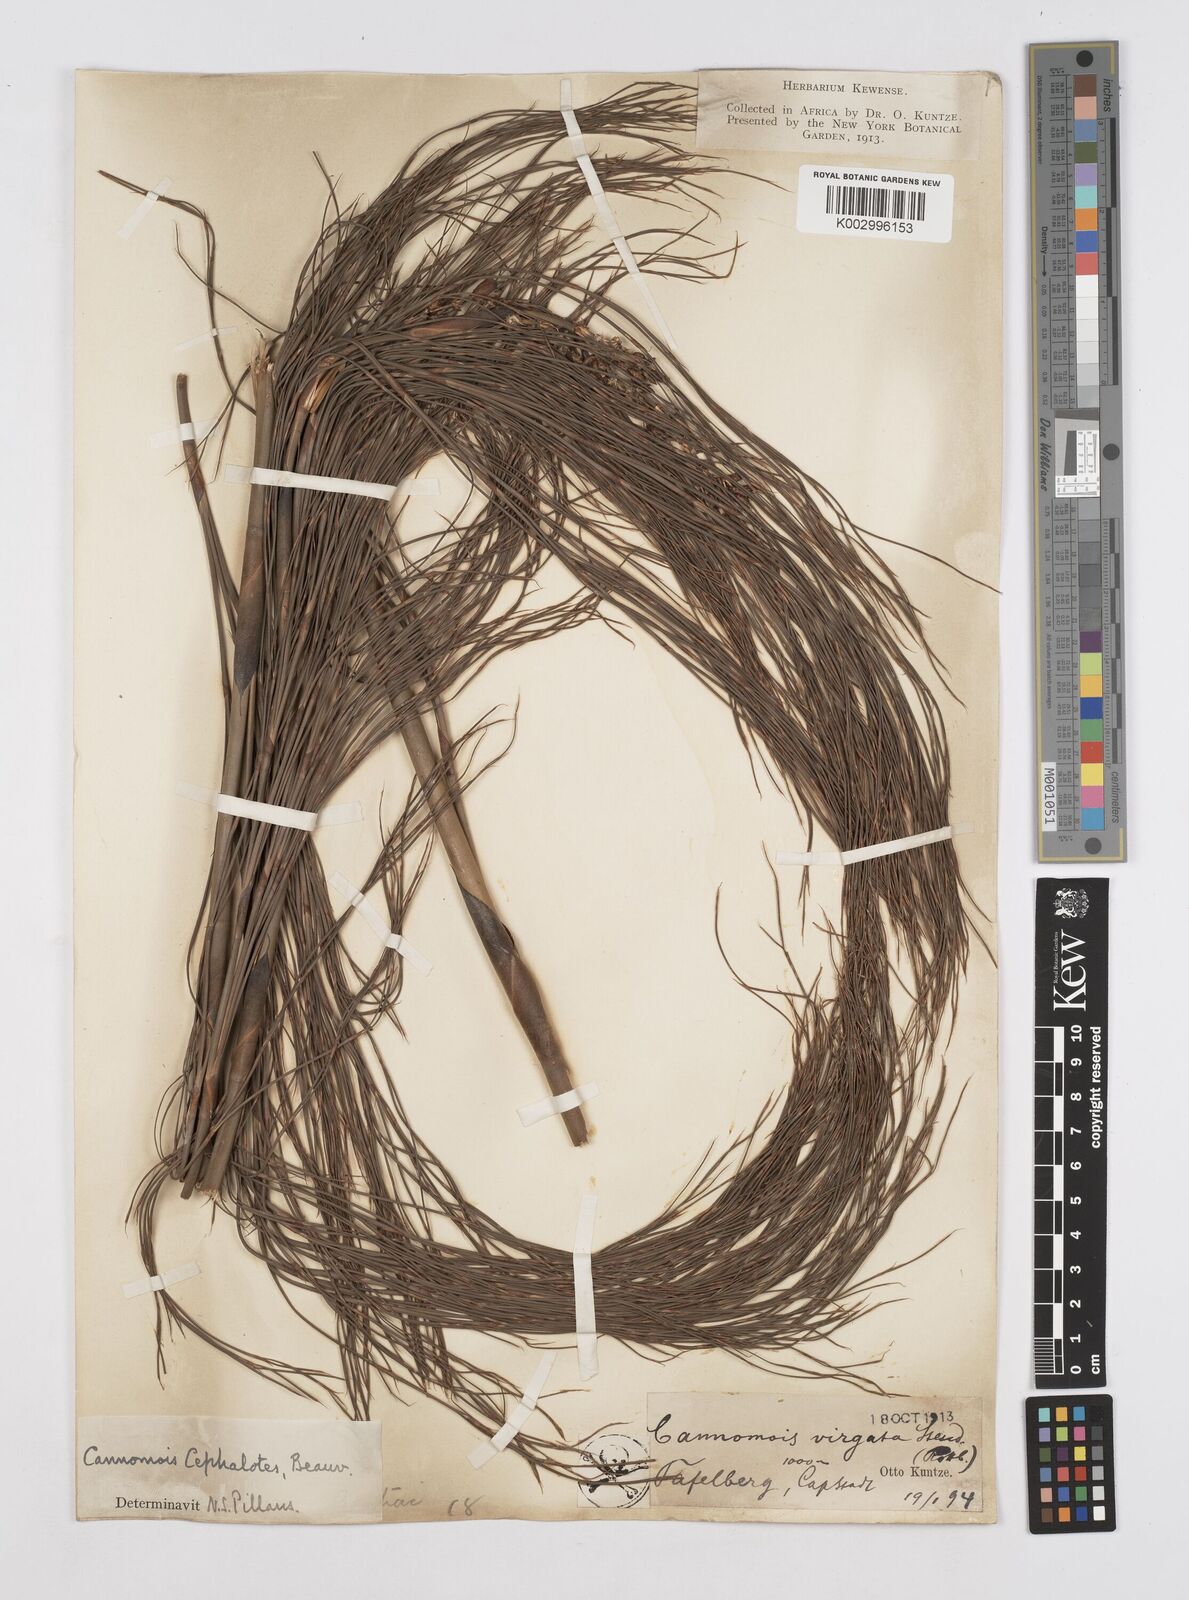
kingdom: Plantae
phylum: Tracheophyta
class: Liliopsida
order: Poales
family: Restionaceae
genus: Cannomois
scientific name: Cannomois virgata
